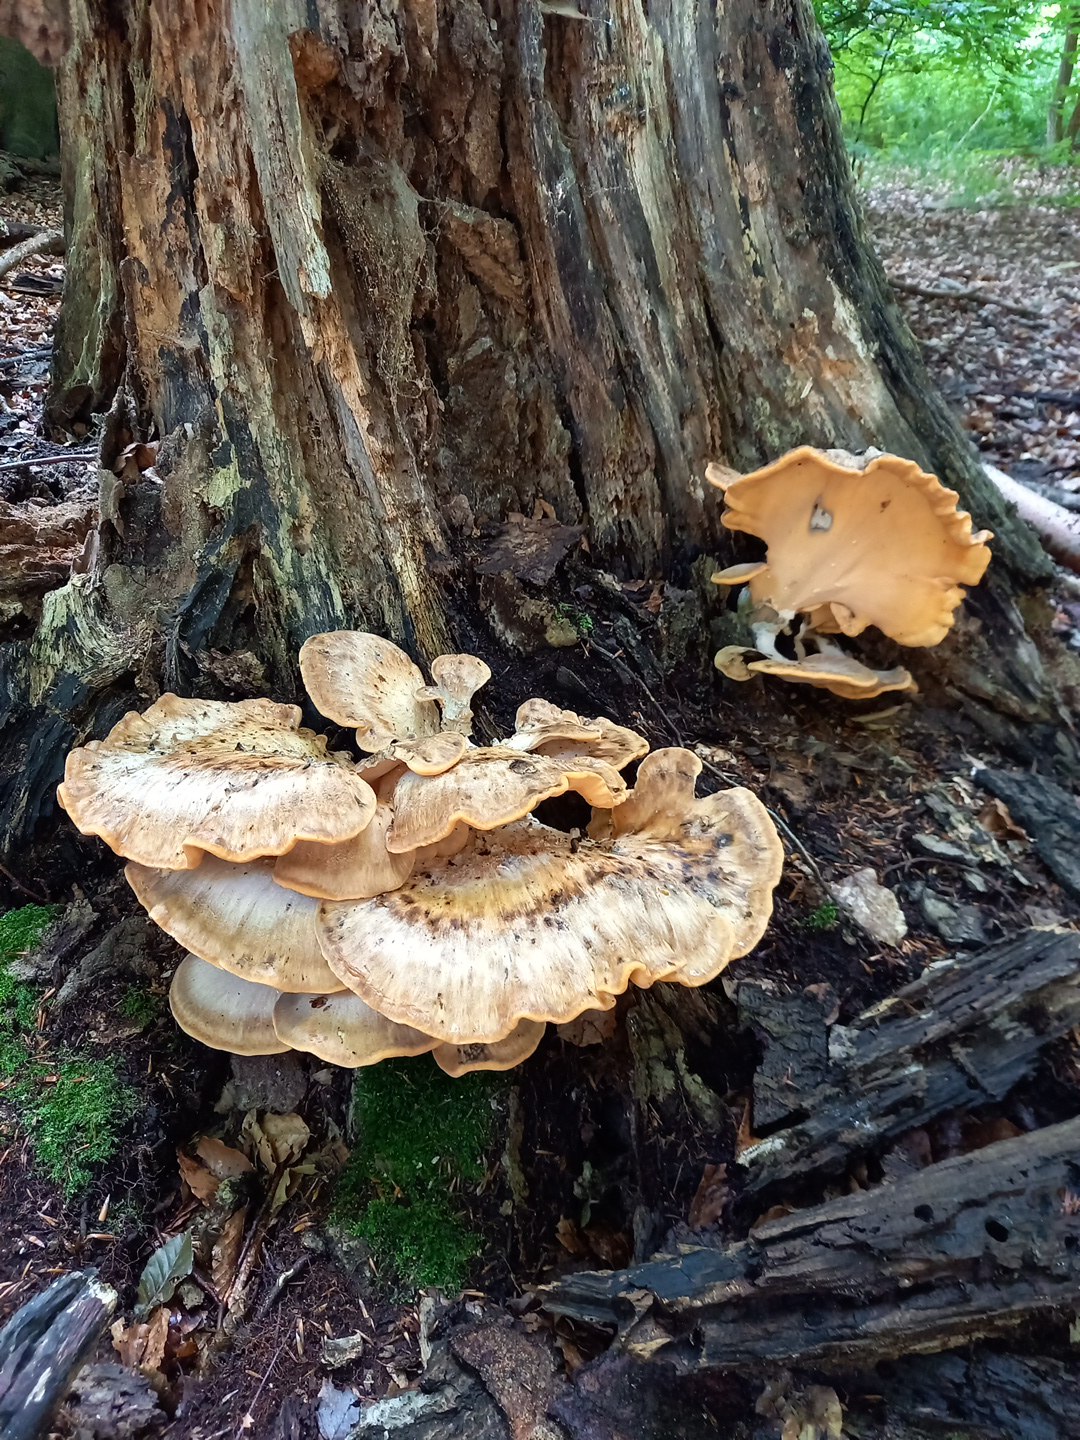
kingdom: Fungi
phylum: Basidiomycota
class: Agaricomycetes
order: Polyporales
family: Meripilaceae
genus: Meripilus
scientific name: Meripilus giganteus
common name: kæmpeporesvamp
